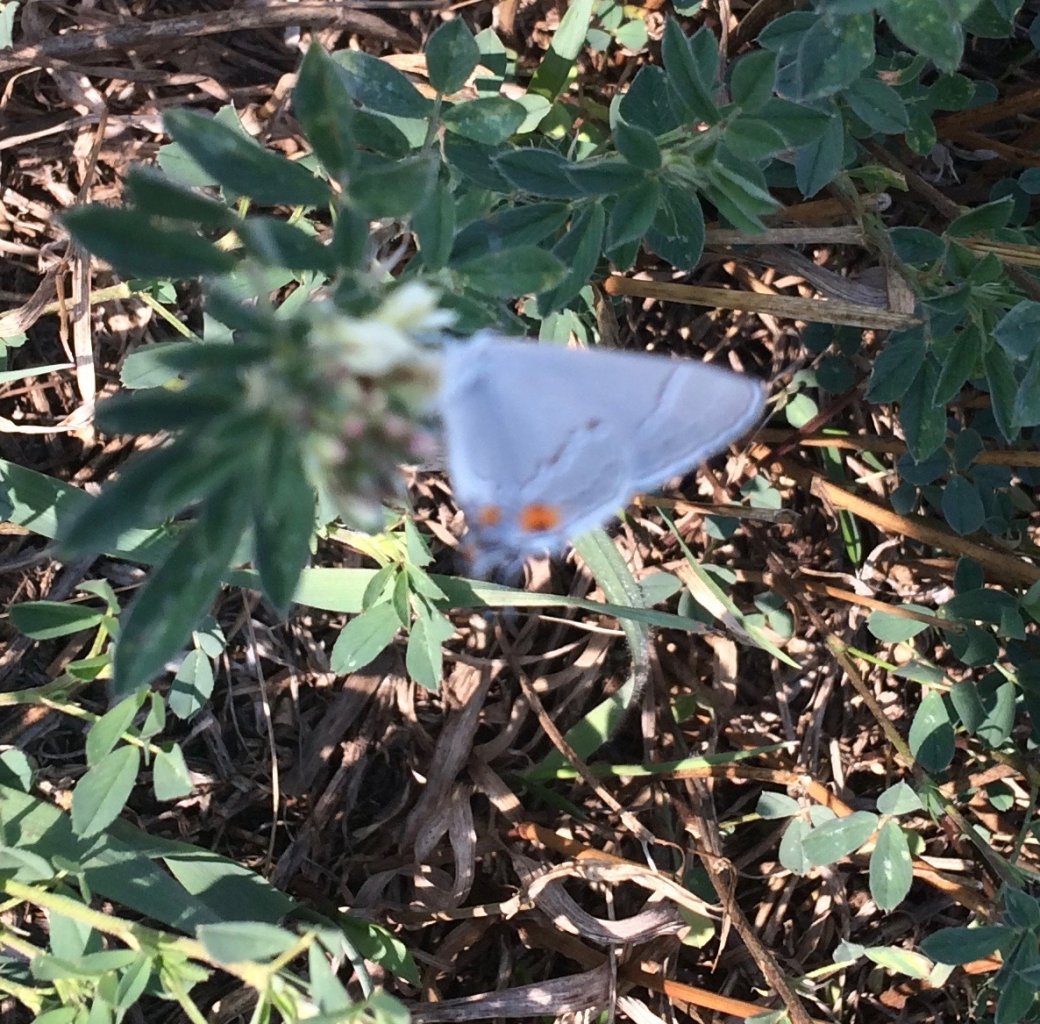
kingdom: Animalia
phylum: Arthropoda
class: Insecta
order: Lepidoptera
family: Lycaenidae
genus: Strymon
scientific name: Strymon melinus
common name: Gray Hairstreak
